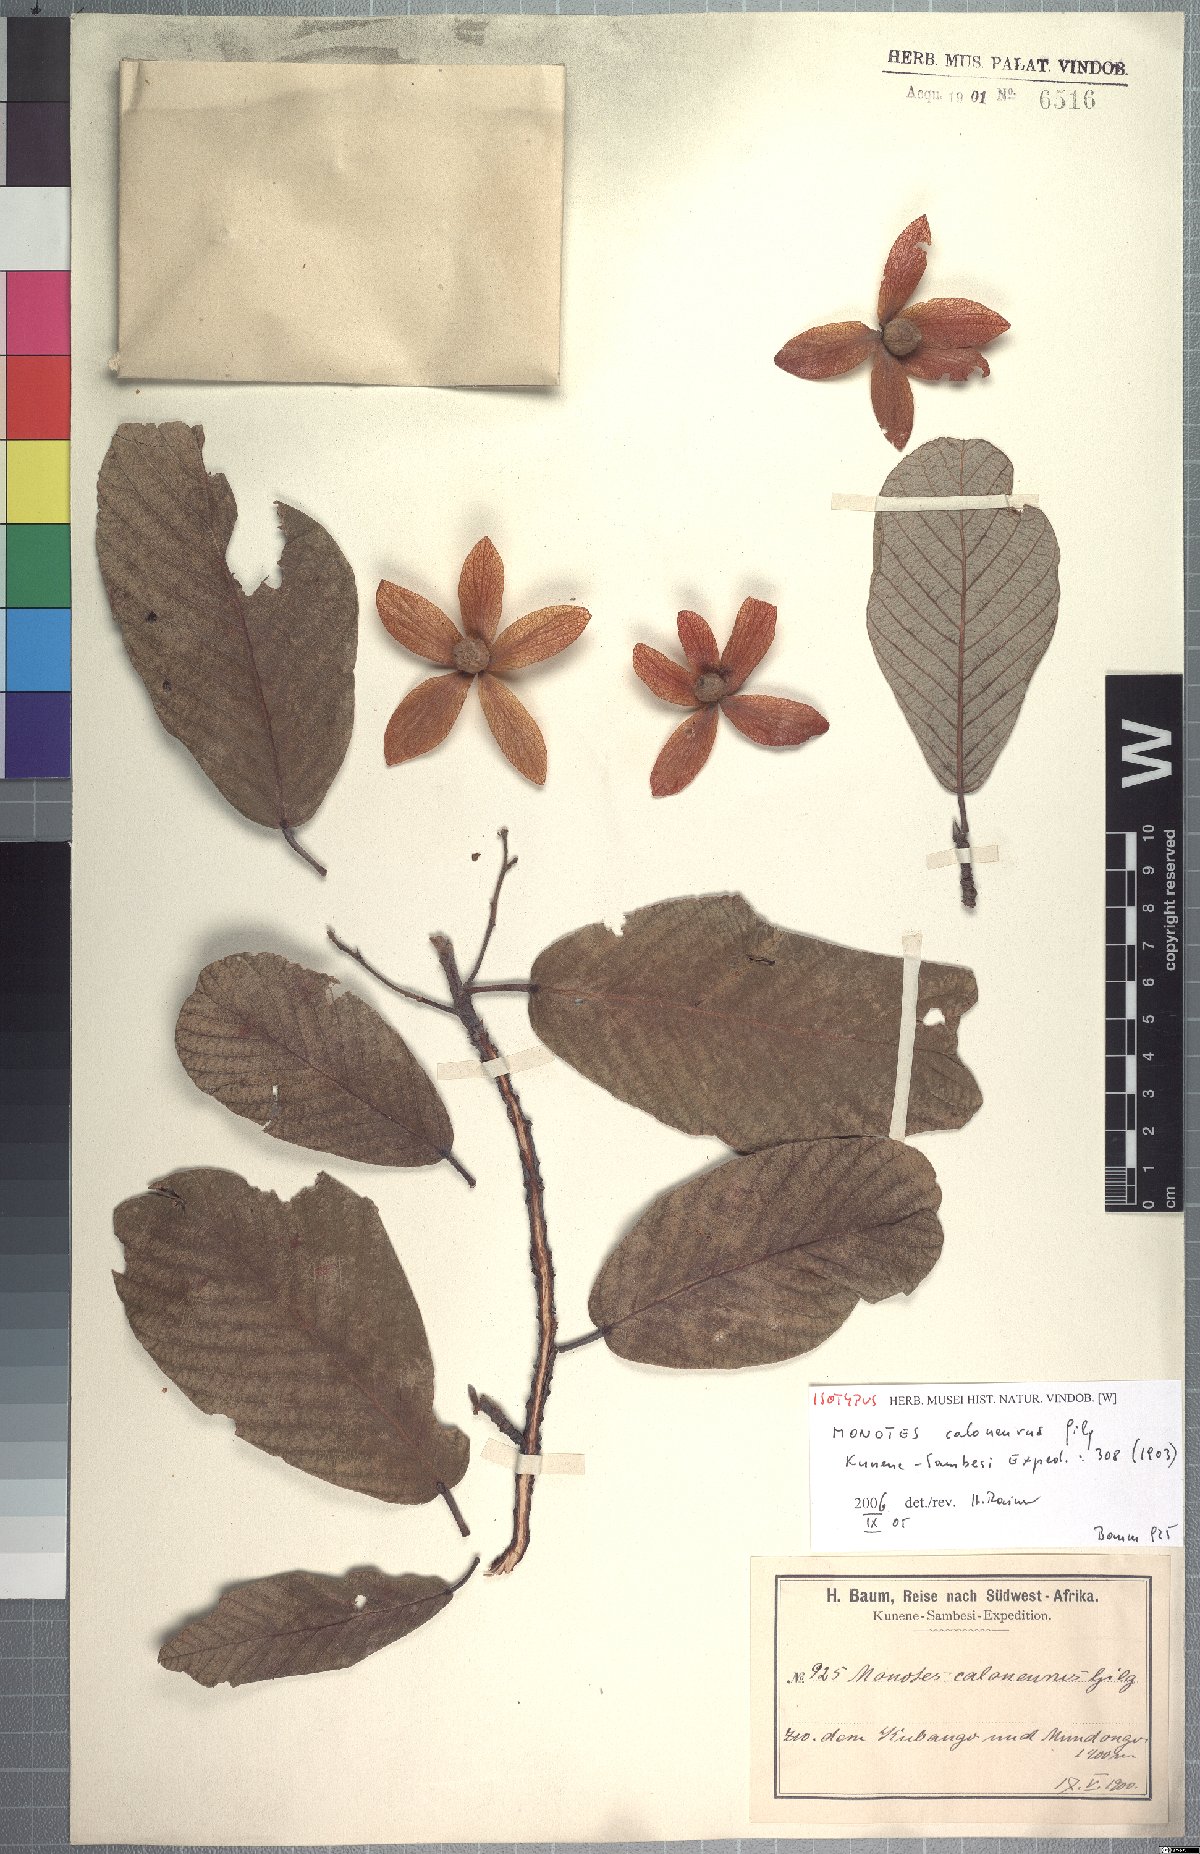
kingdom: Plantae
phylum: Tracheophyta
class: Magnoliopsida
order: Malvales
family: Dipterocarpaceae
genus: Monotes
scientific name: Monotes hypoleucus
